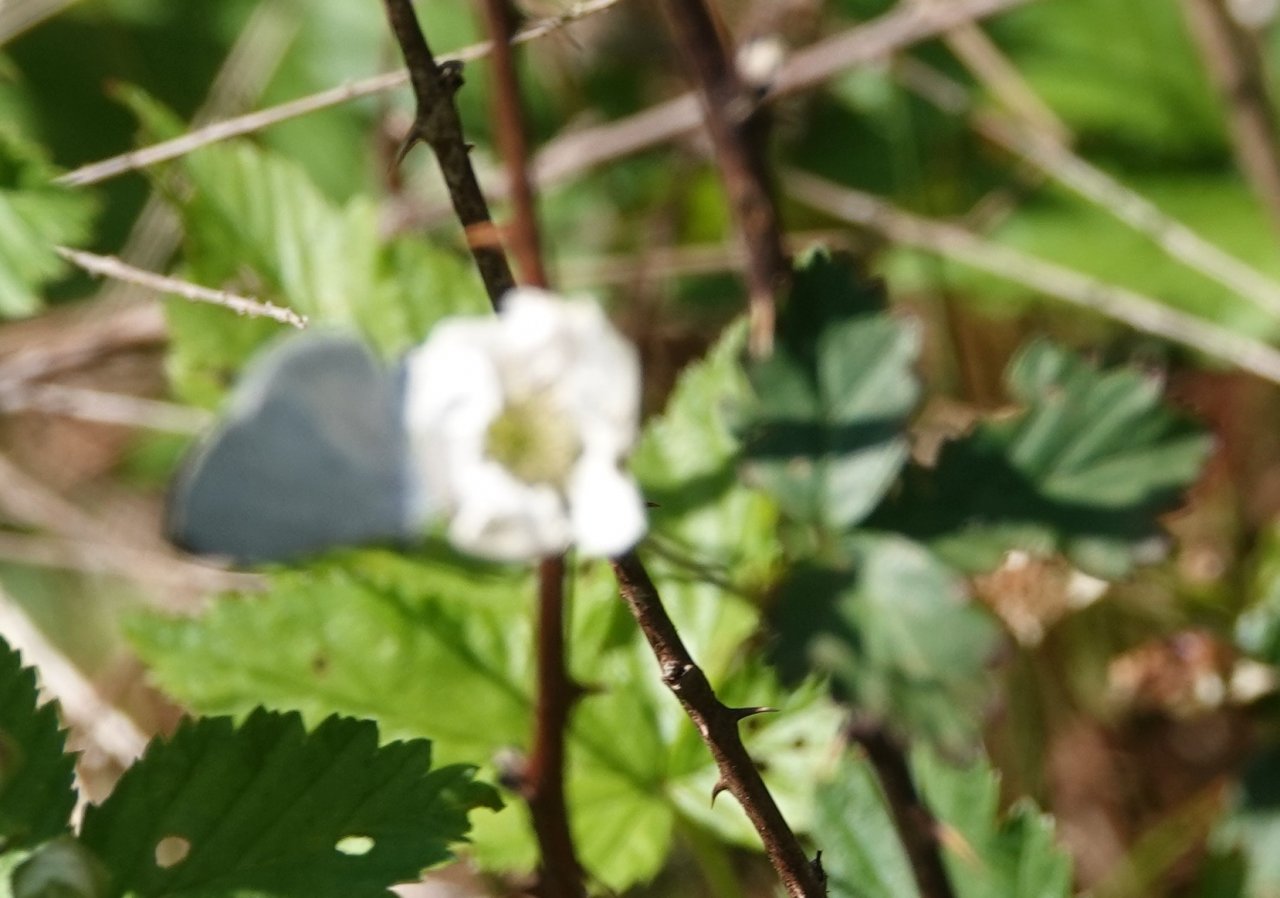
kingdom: Animalia
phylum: Arthropoda
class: Insecta
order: Lepidoptera
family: Lycaenidae
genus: Cyaniris
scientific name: Cyaniris neglecta
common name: Summer Azure
